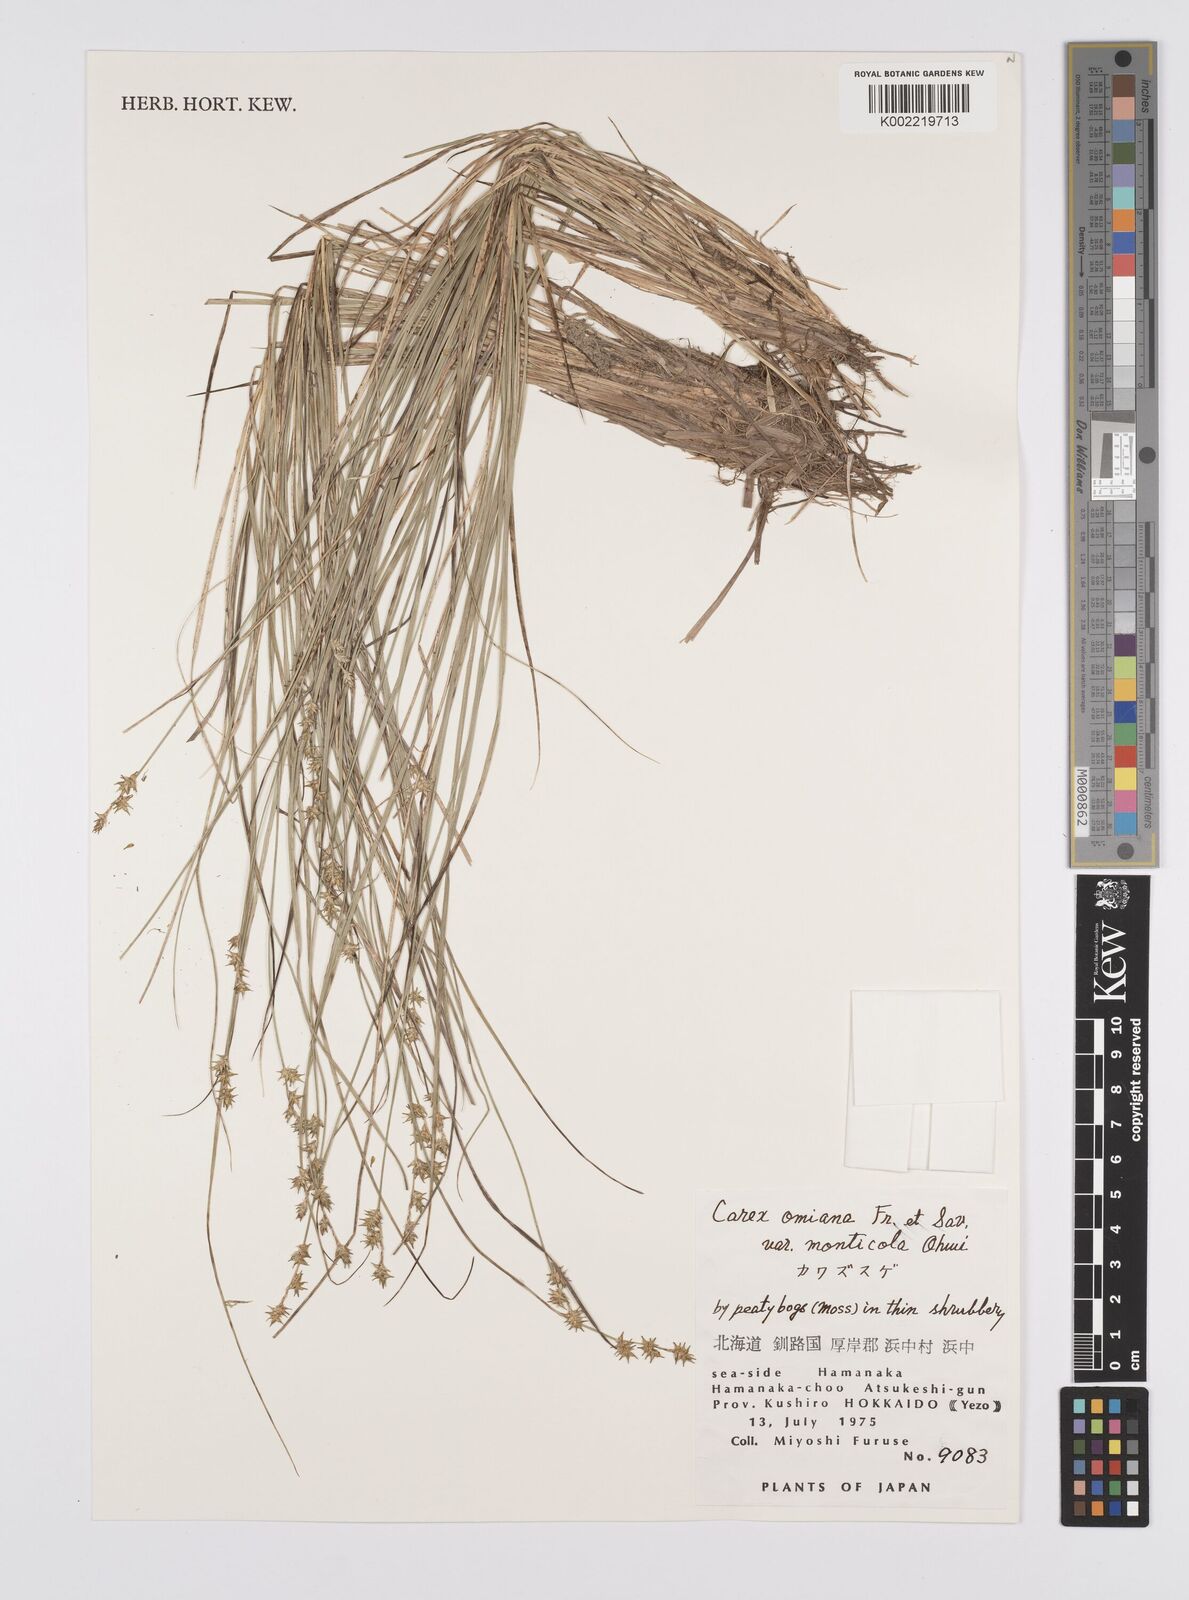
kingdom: Plantae
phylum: Tracheophyta
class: Liliopsida
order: Poales
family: Cyperaceae
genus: Carex
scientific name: Carex omiana
